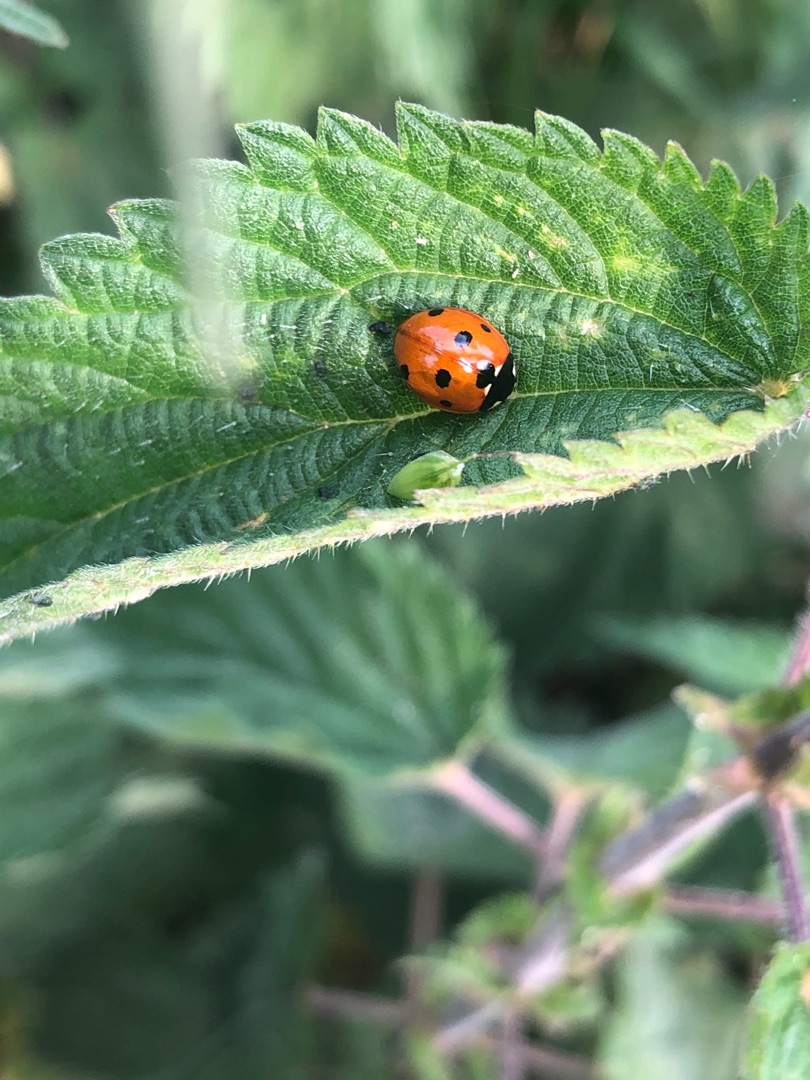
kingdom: Animalia
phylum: Arthropoda
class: Insecta
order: Coleoptera
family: Coccinellidae
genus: Coccinella
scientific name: Coccinella septempunctata
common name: Syvplettet mariehøne
